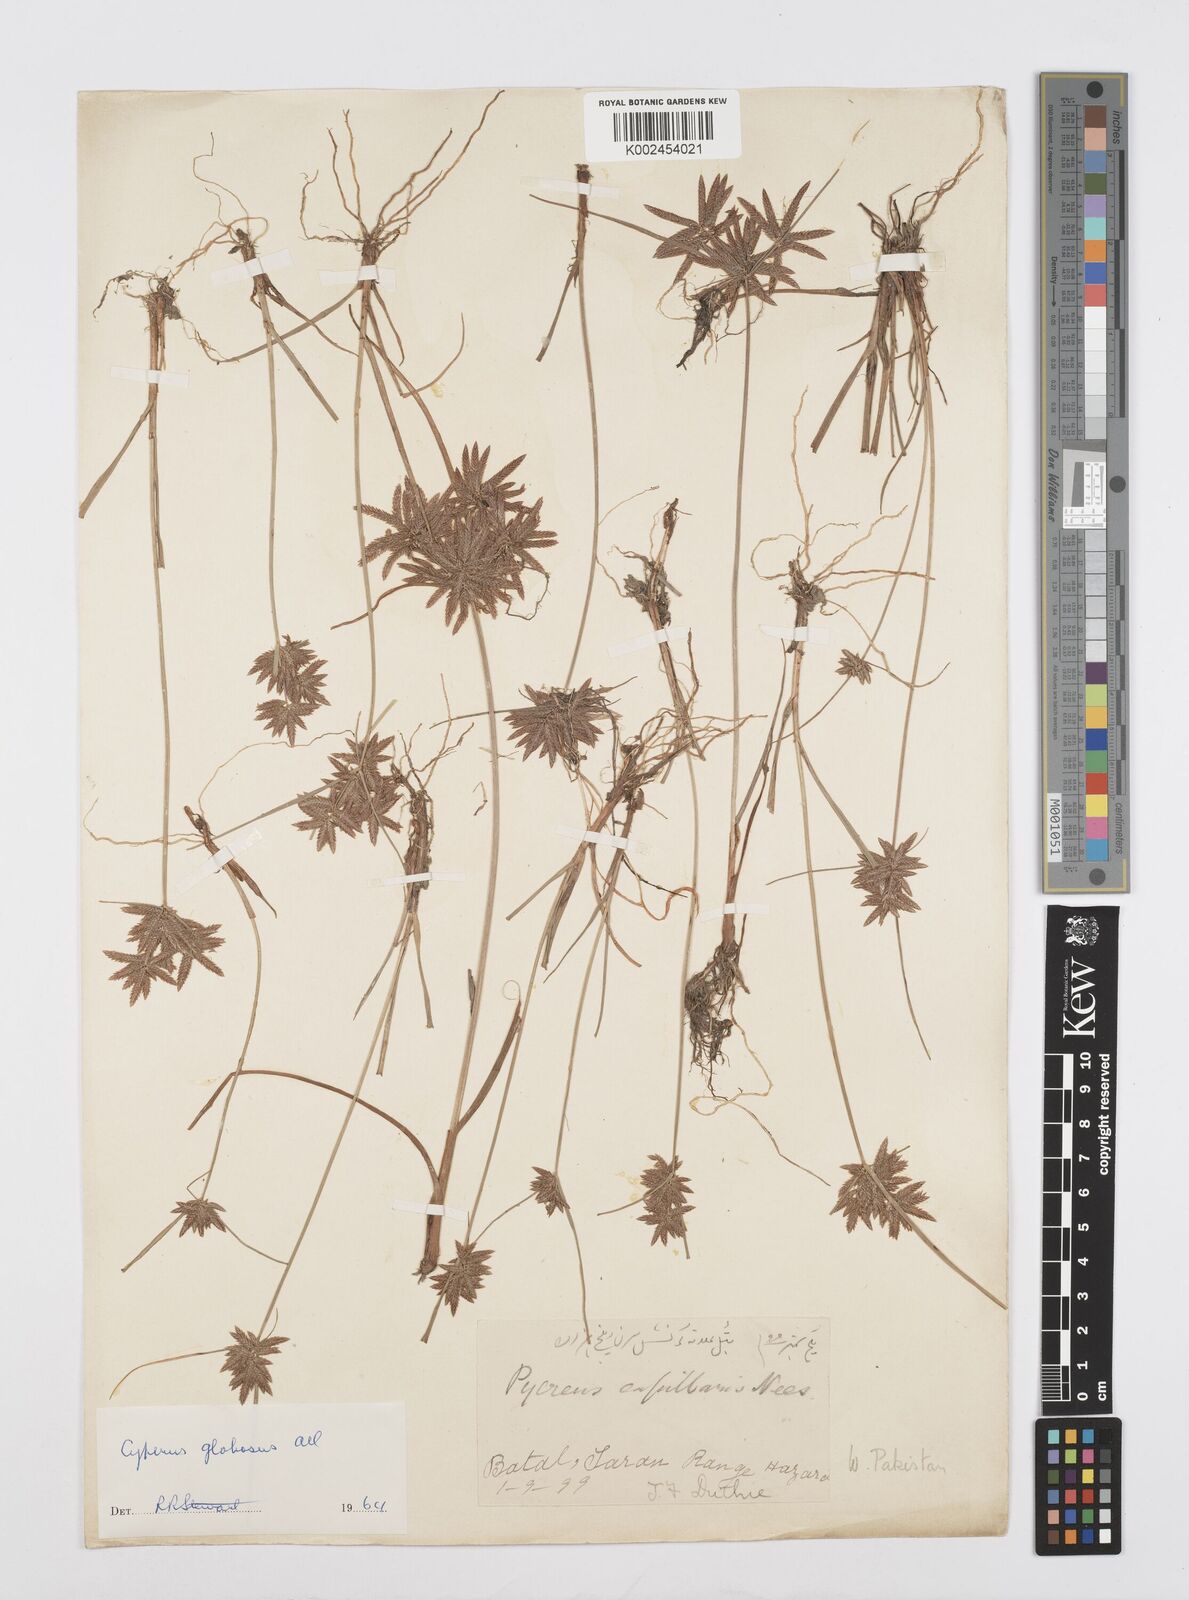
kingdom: Plantae
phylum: Tracheophyta
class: Liliopsida
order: Poales
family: Cyperaceae
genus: Cyperus
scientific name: Cyperus flavidus
